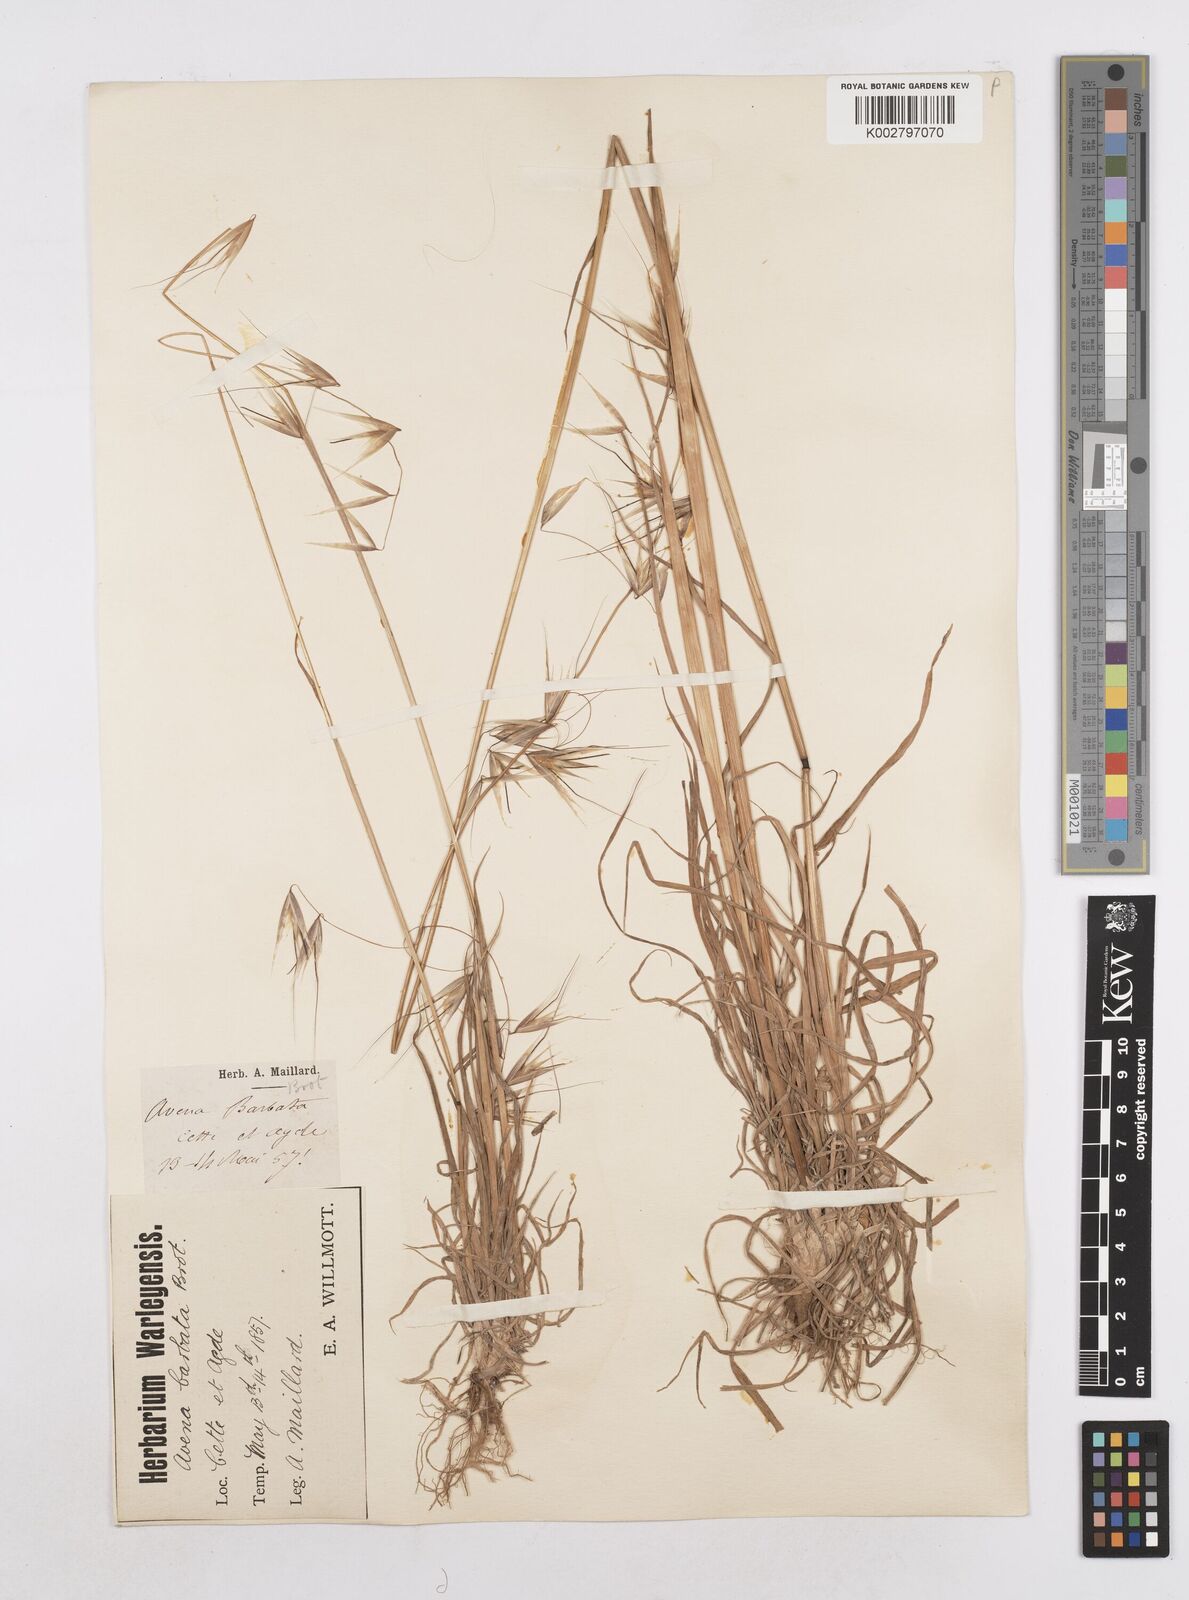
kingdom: Plantae
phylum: Tracheophyta
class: Liliopsida
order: Poales
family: Poaceae
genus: Avena
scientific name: Avena
